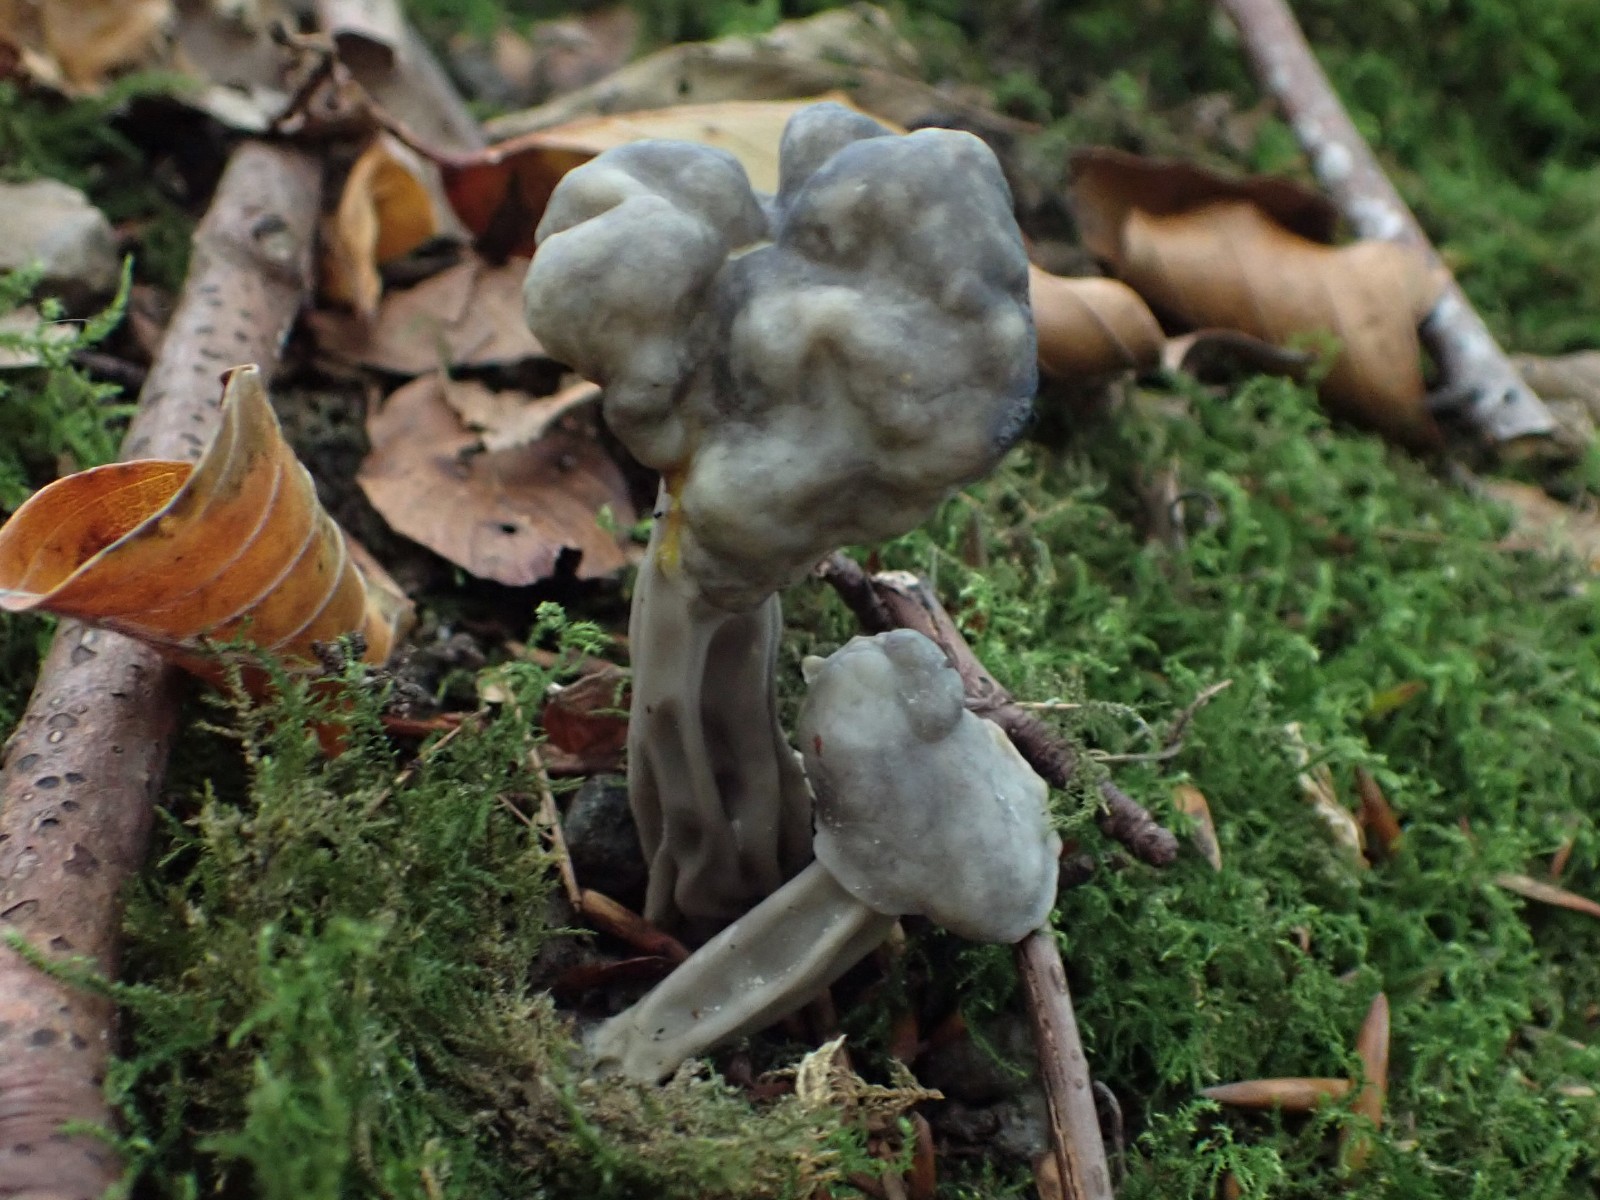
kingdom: Fungi
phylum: Ascomycota
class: Pezizomycetes
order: Pezizales
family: Helvellaceae
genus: Helvella
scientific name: Helvella lacunosa
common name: grubet foldhat
